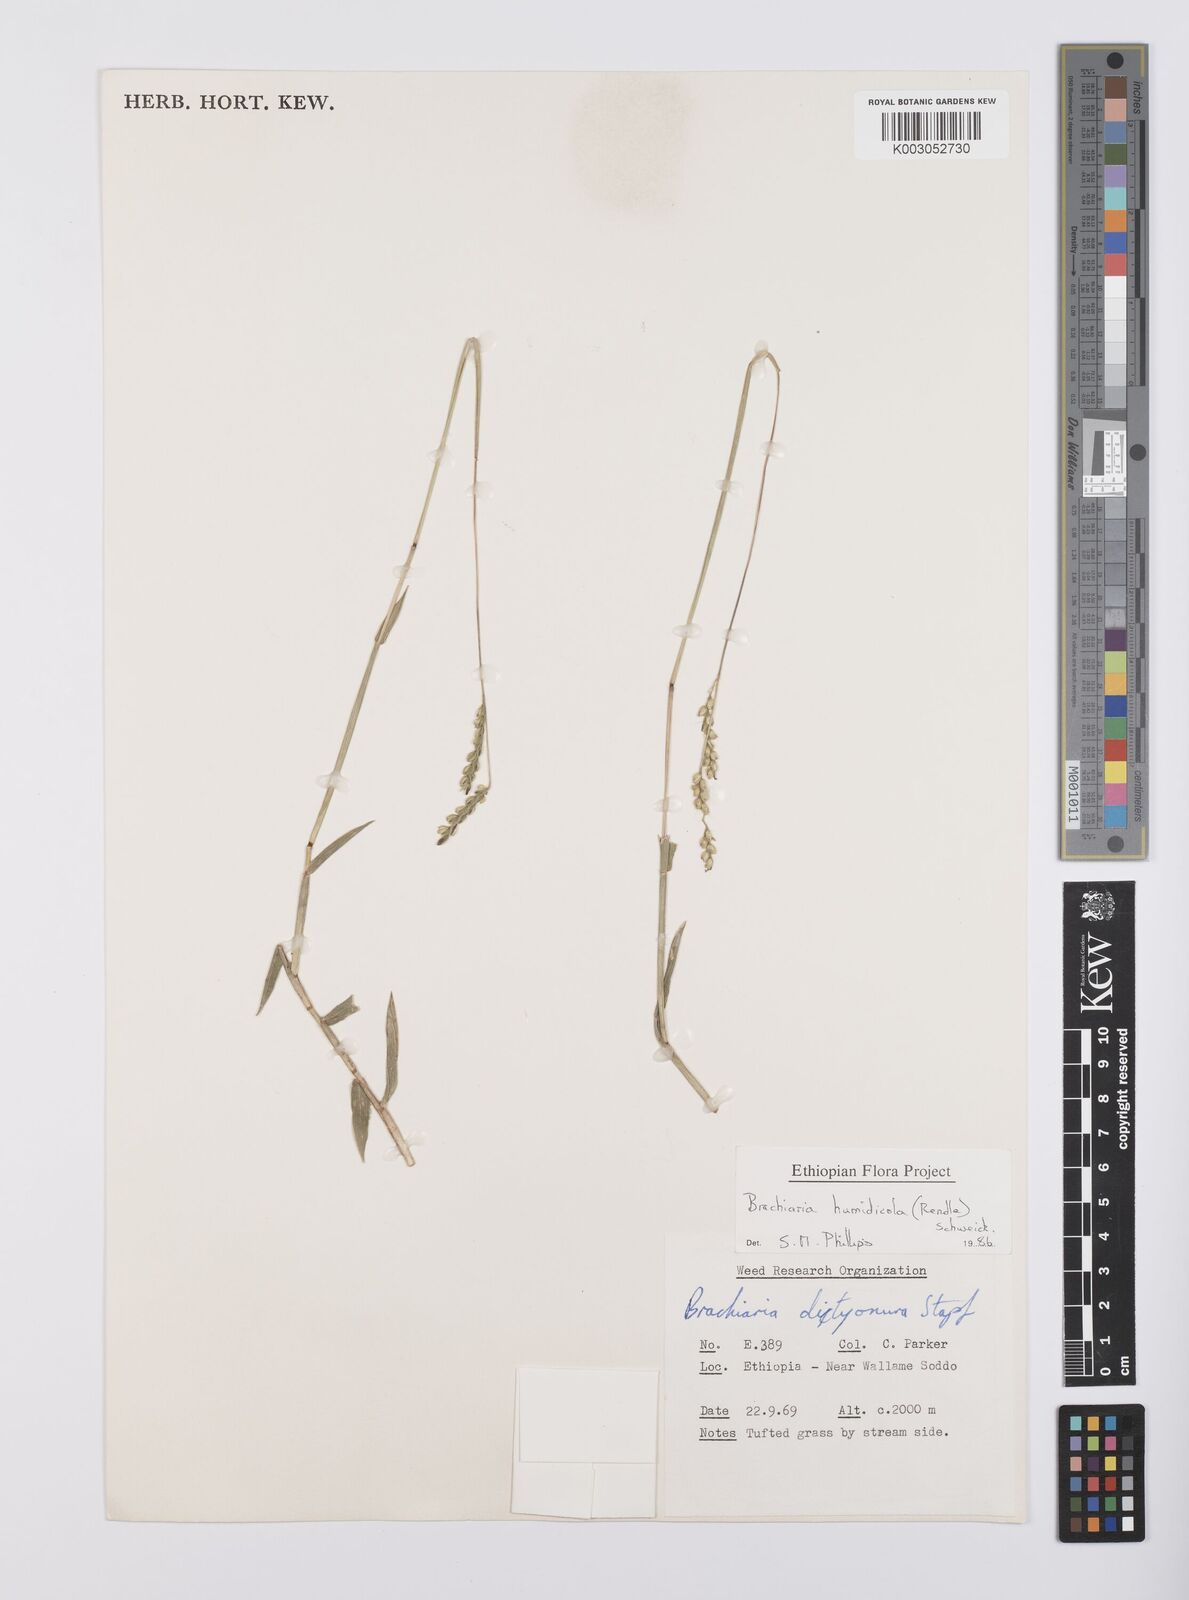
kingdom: Plantae
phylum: Tracheophyta
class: Liliopsida
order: Poales
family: Poaceae
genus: Urochloa
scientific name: Urochloa dictyoneura
